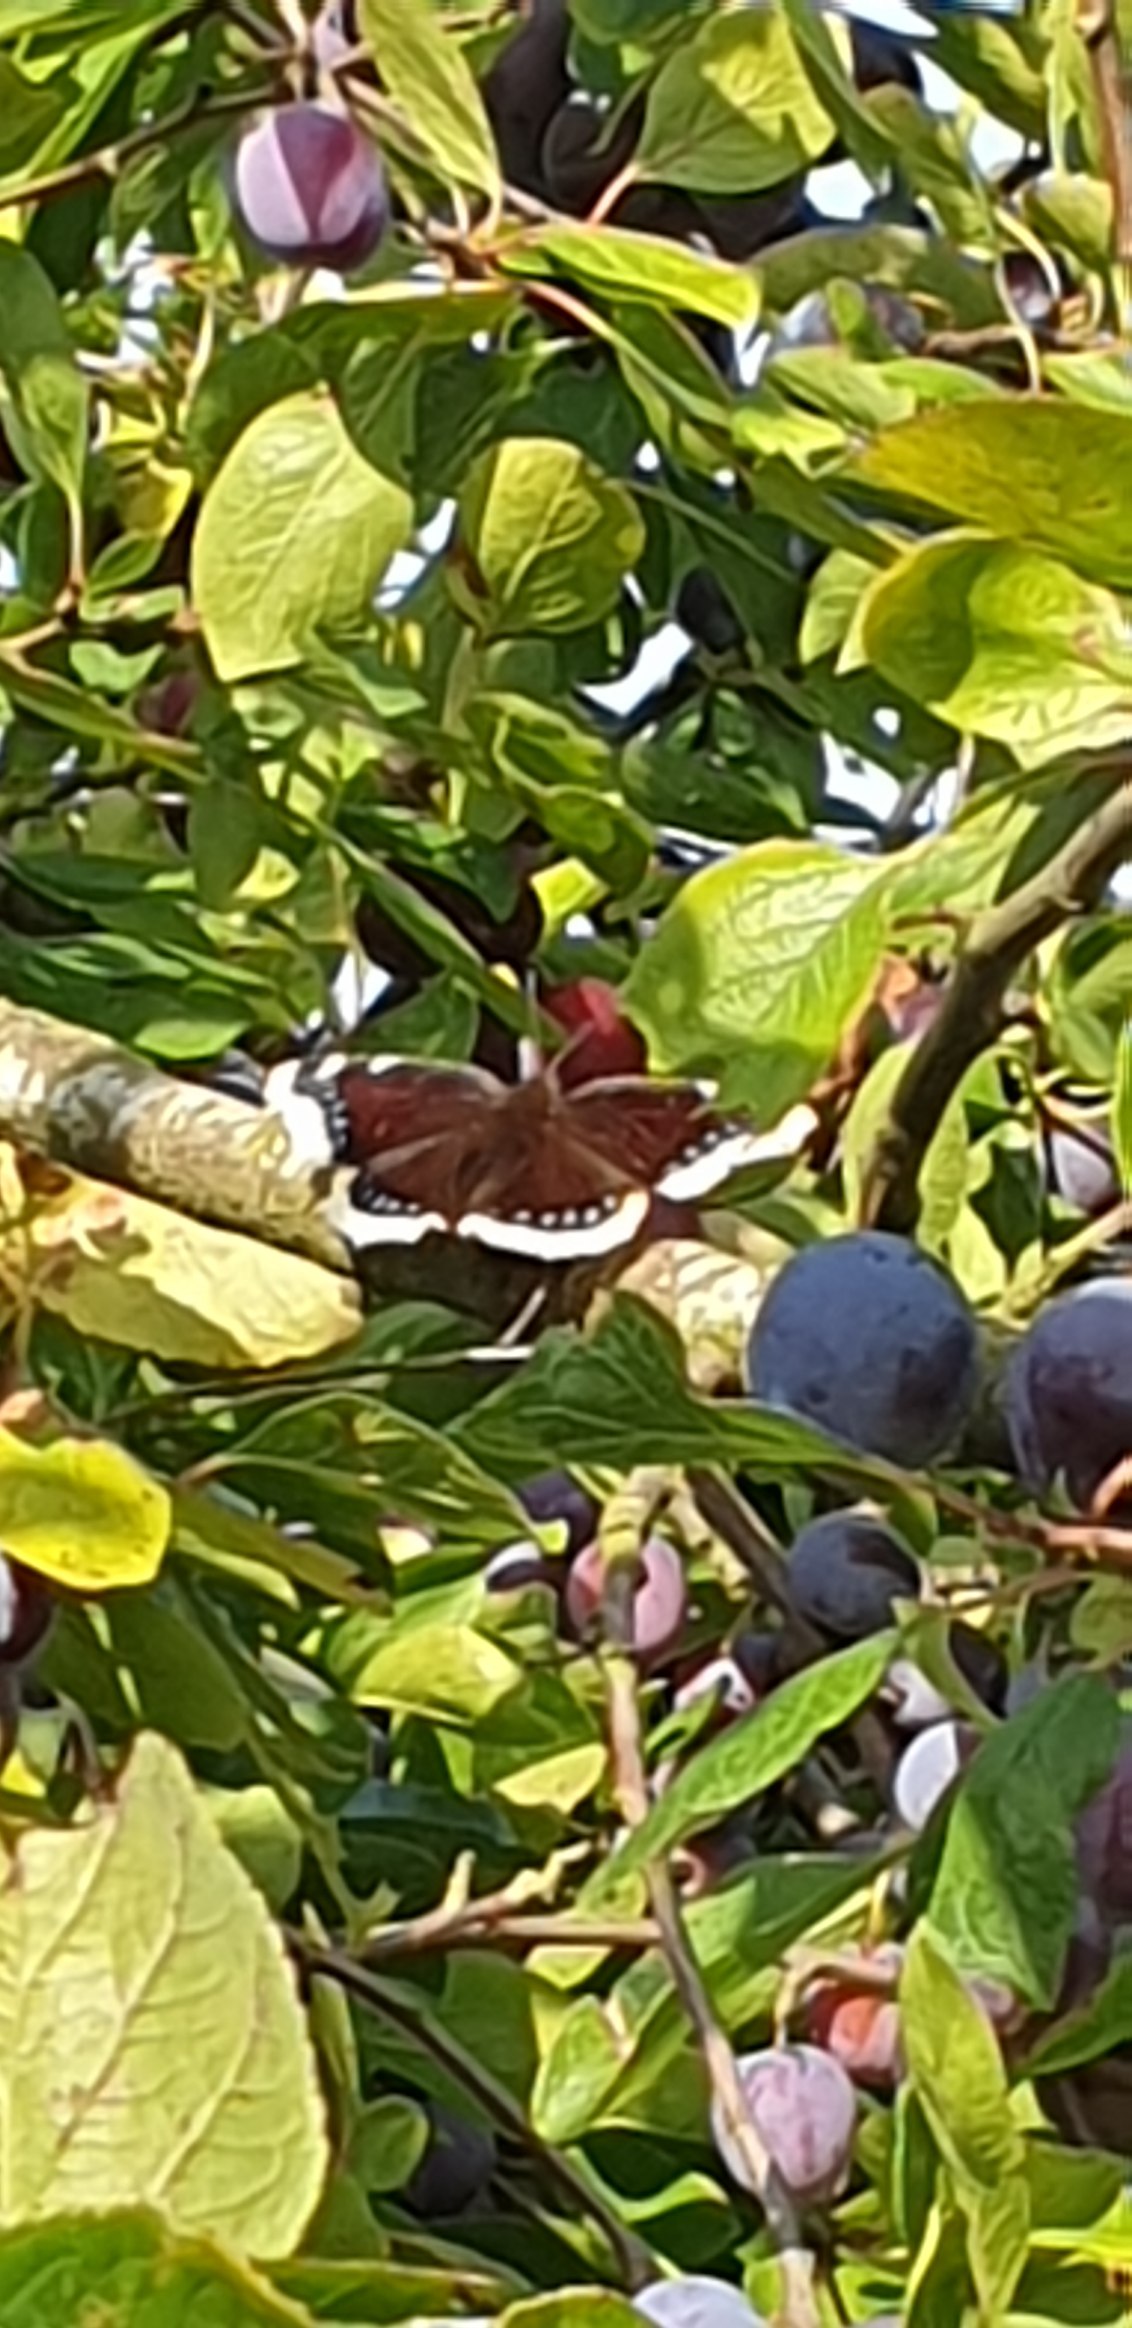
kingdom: Animalia
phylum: Arthropoda
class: Insecta
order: Lepidoptera
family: Nymphalidae
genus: Nymphalis
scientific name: Nymphalis antiopa
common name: Sørgekåbe
